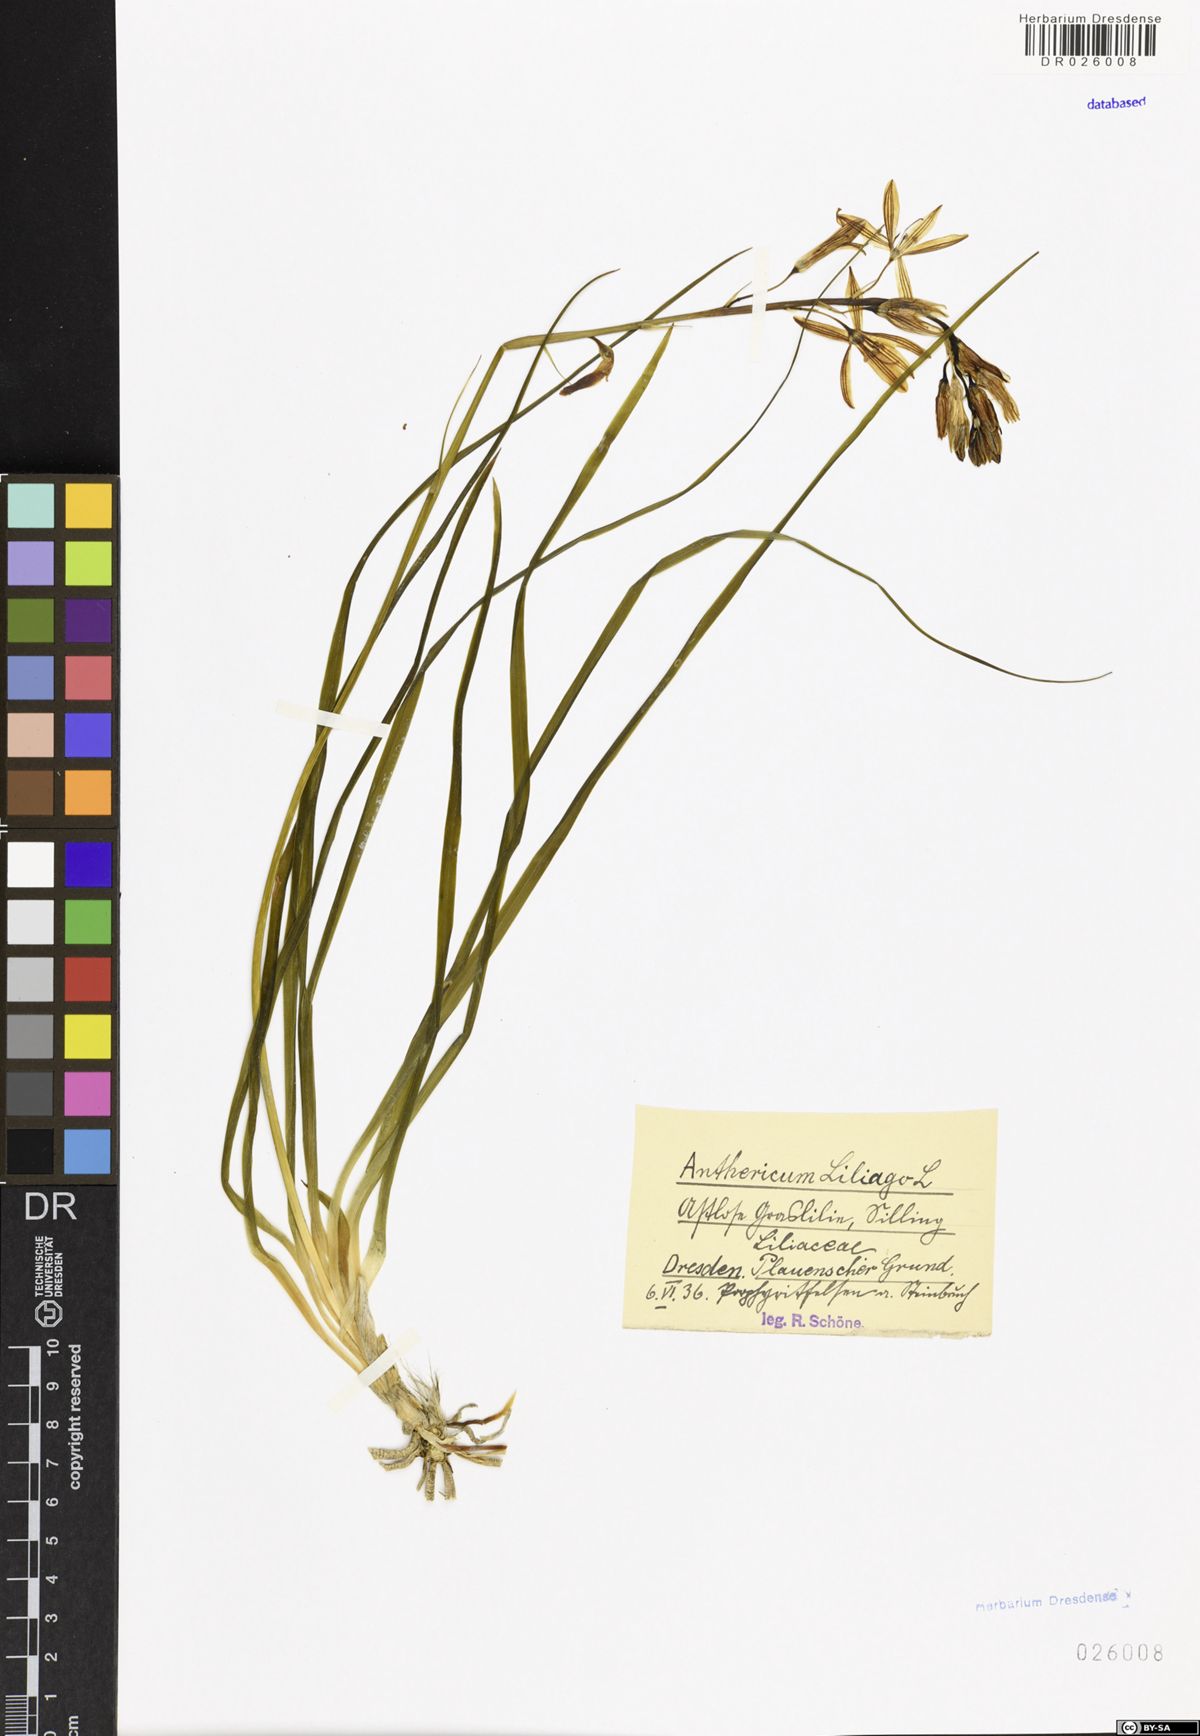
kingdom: Plantae
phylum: Tracheophyta
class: Liliopsida
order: Asparagales
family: Asparagaceae
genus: Anthericum
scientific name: Anthericum liliago
